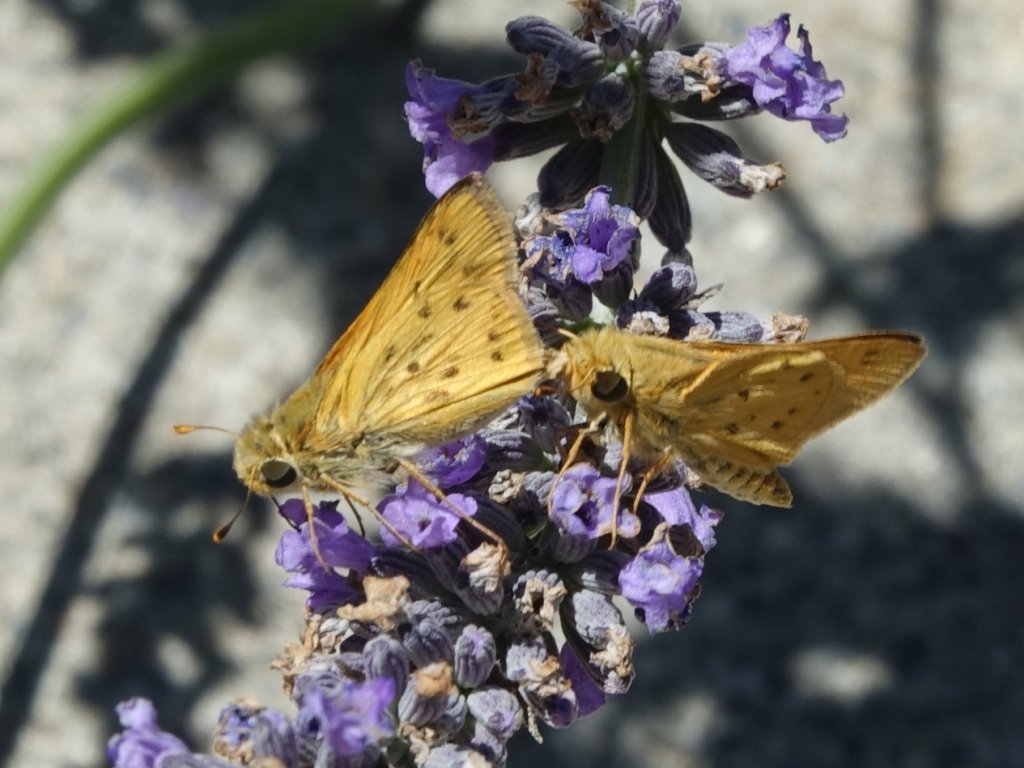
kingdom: Animalia
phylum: Arthropoda
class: Insecta
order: Lepidoptera
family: Hesperiidae
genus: Hylephila
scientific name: Hylephila phyleus
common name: Fiery Skipper
